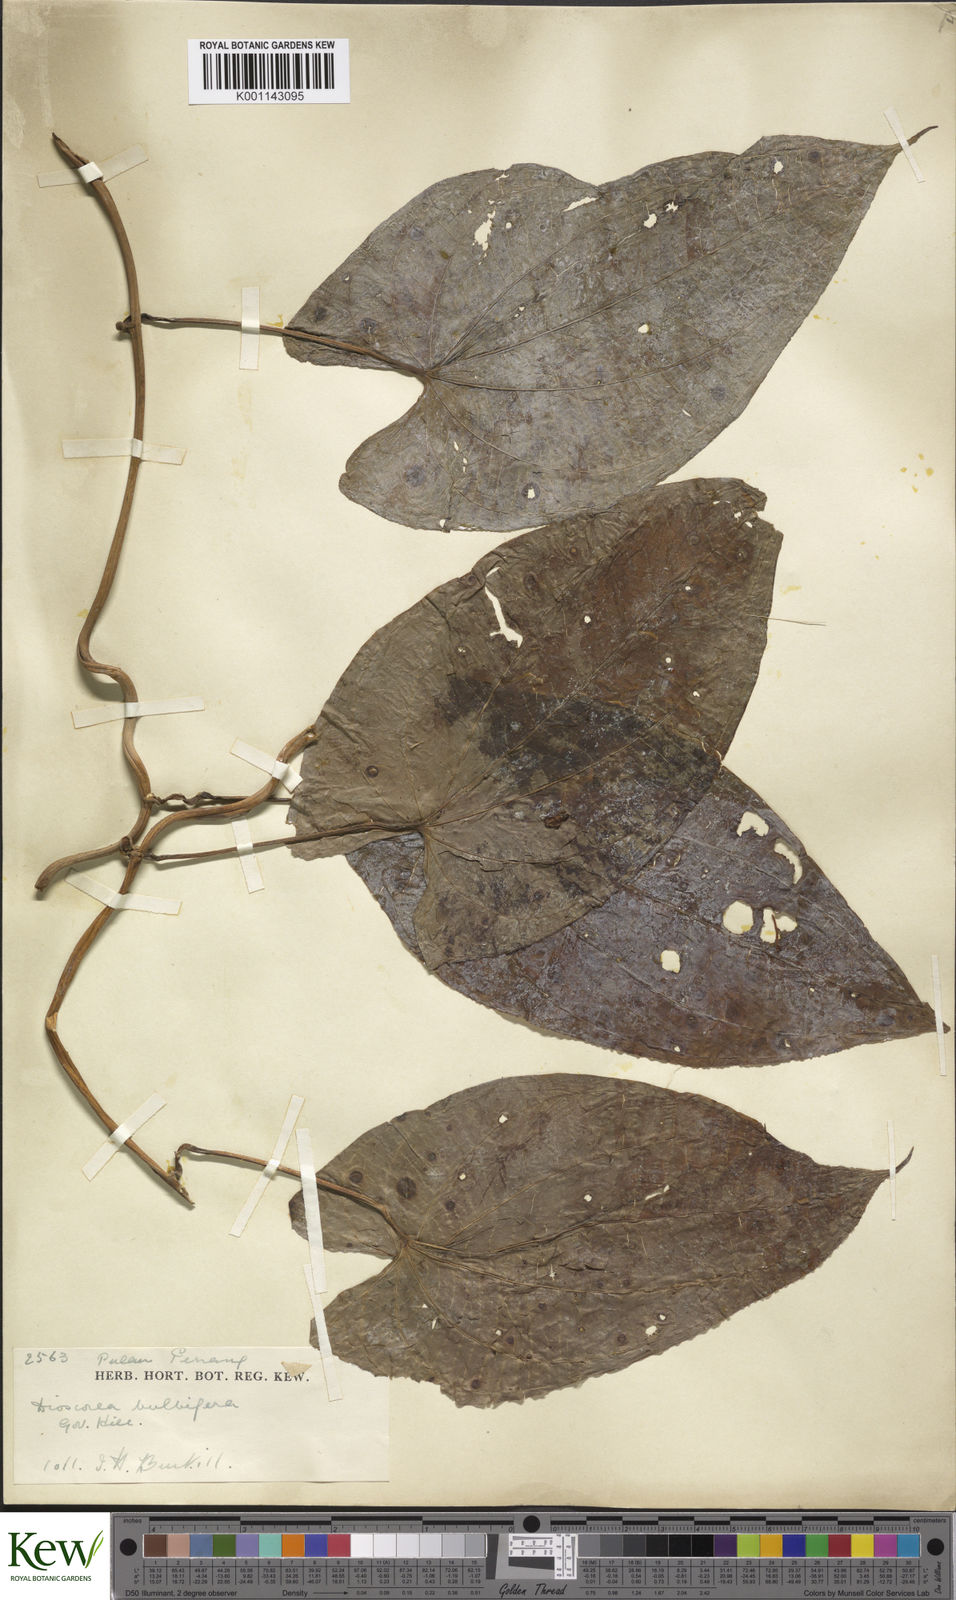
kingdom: Plantae
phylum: Tracheophyta
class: Liliopsida
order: Dioscoreales
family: Dioscoreaceae
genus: Dioscorea
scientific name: Dioscorea bulbifera
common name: Air yam
